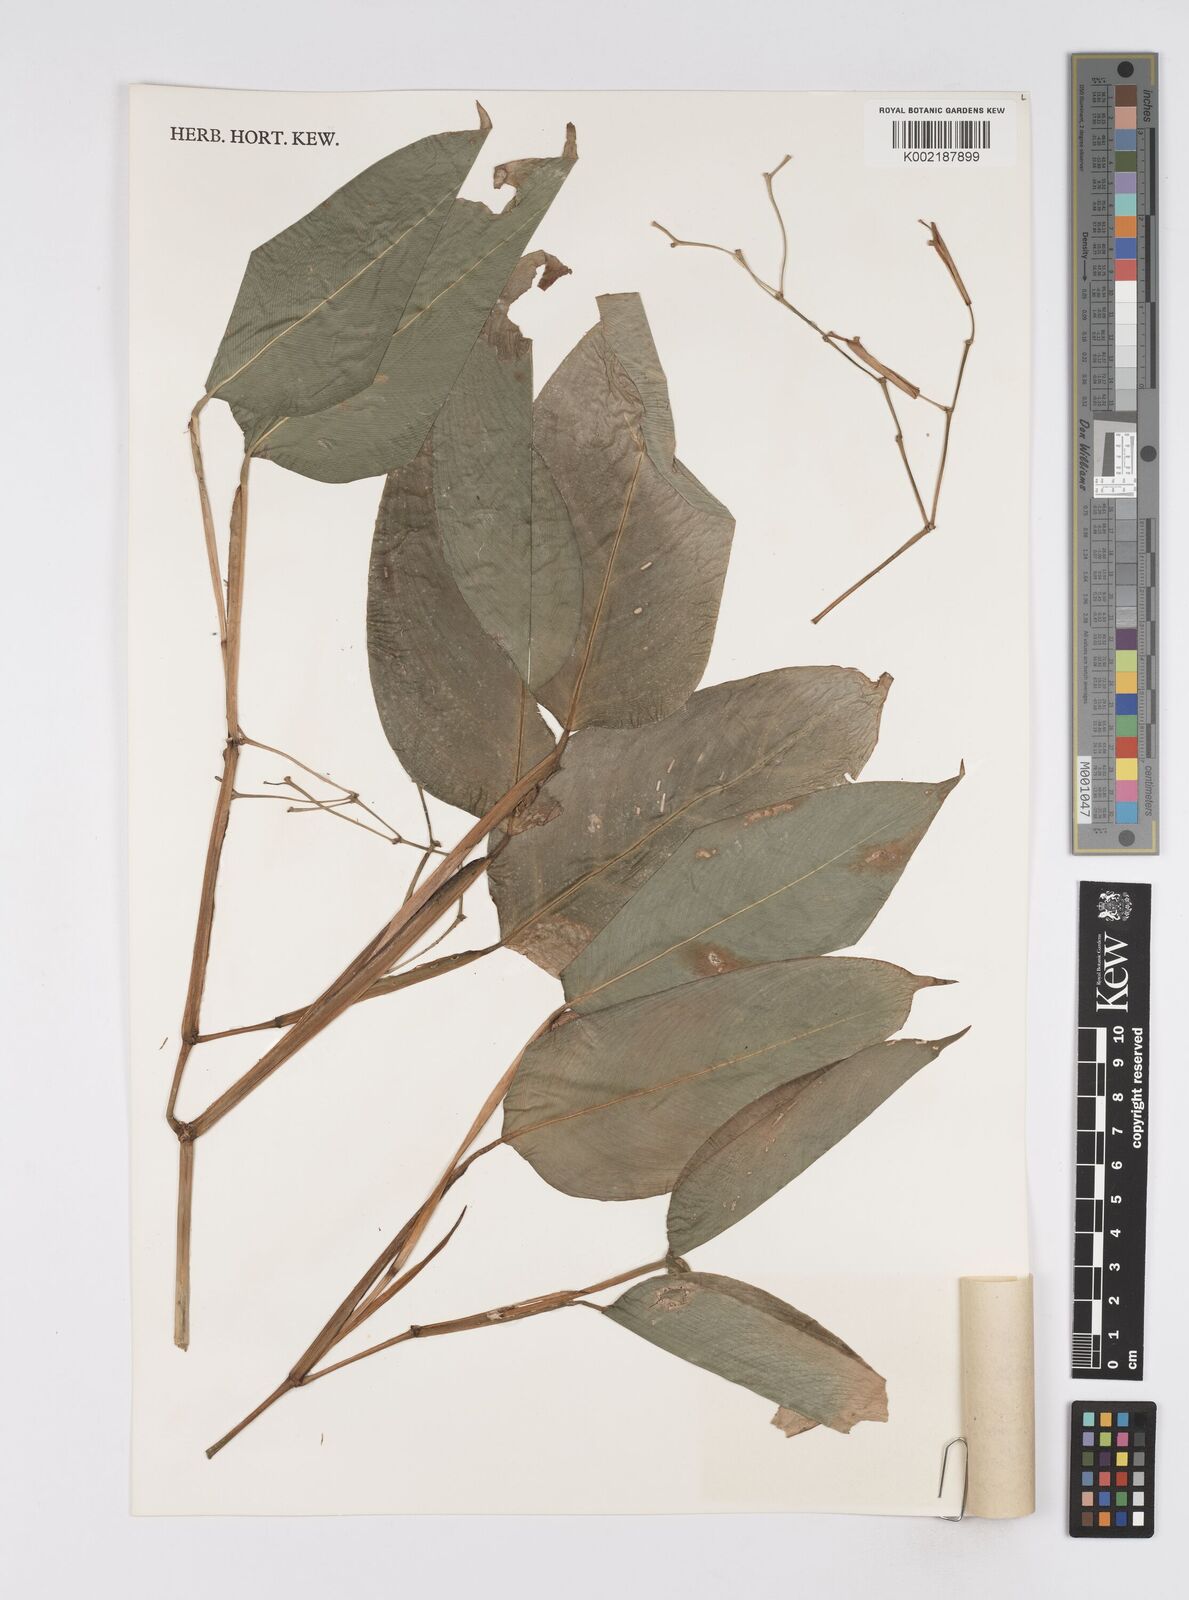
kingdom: Plantae
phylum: Tracheophyta
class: Liliopsida
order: Zingiberales
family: Marantaceae
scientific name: Marantaceae
